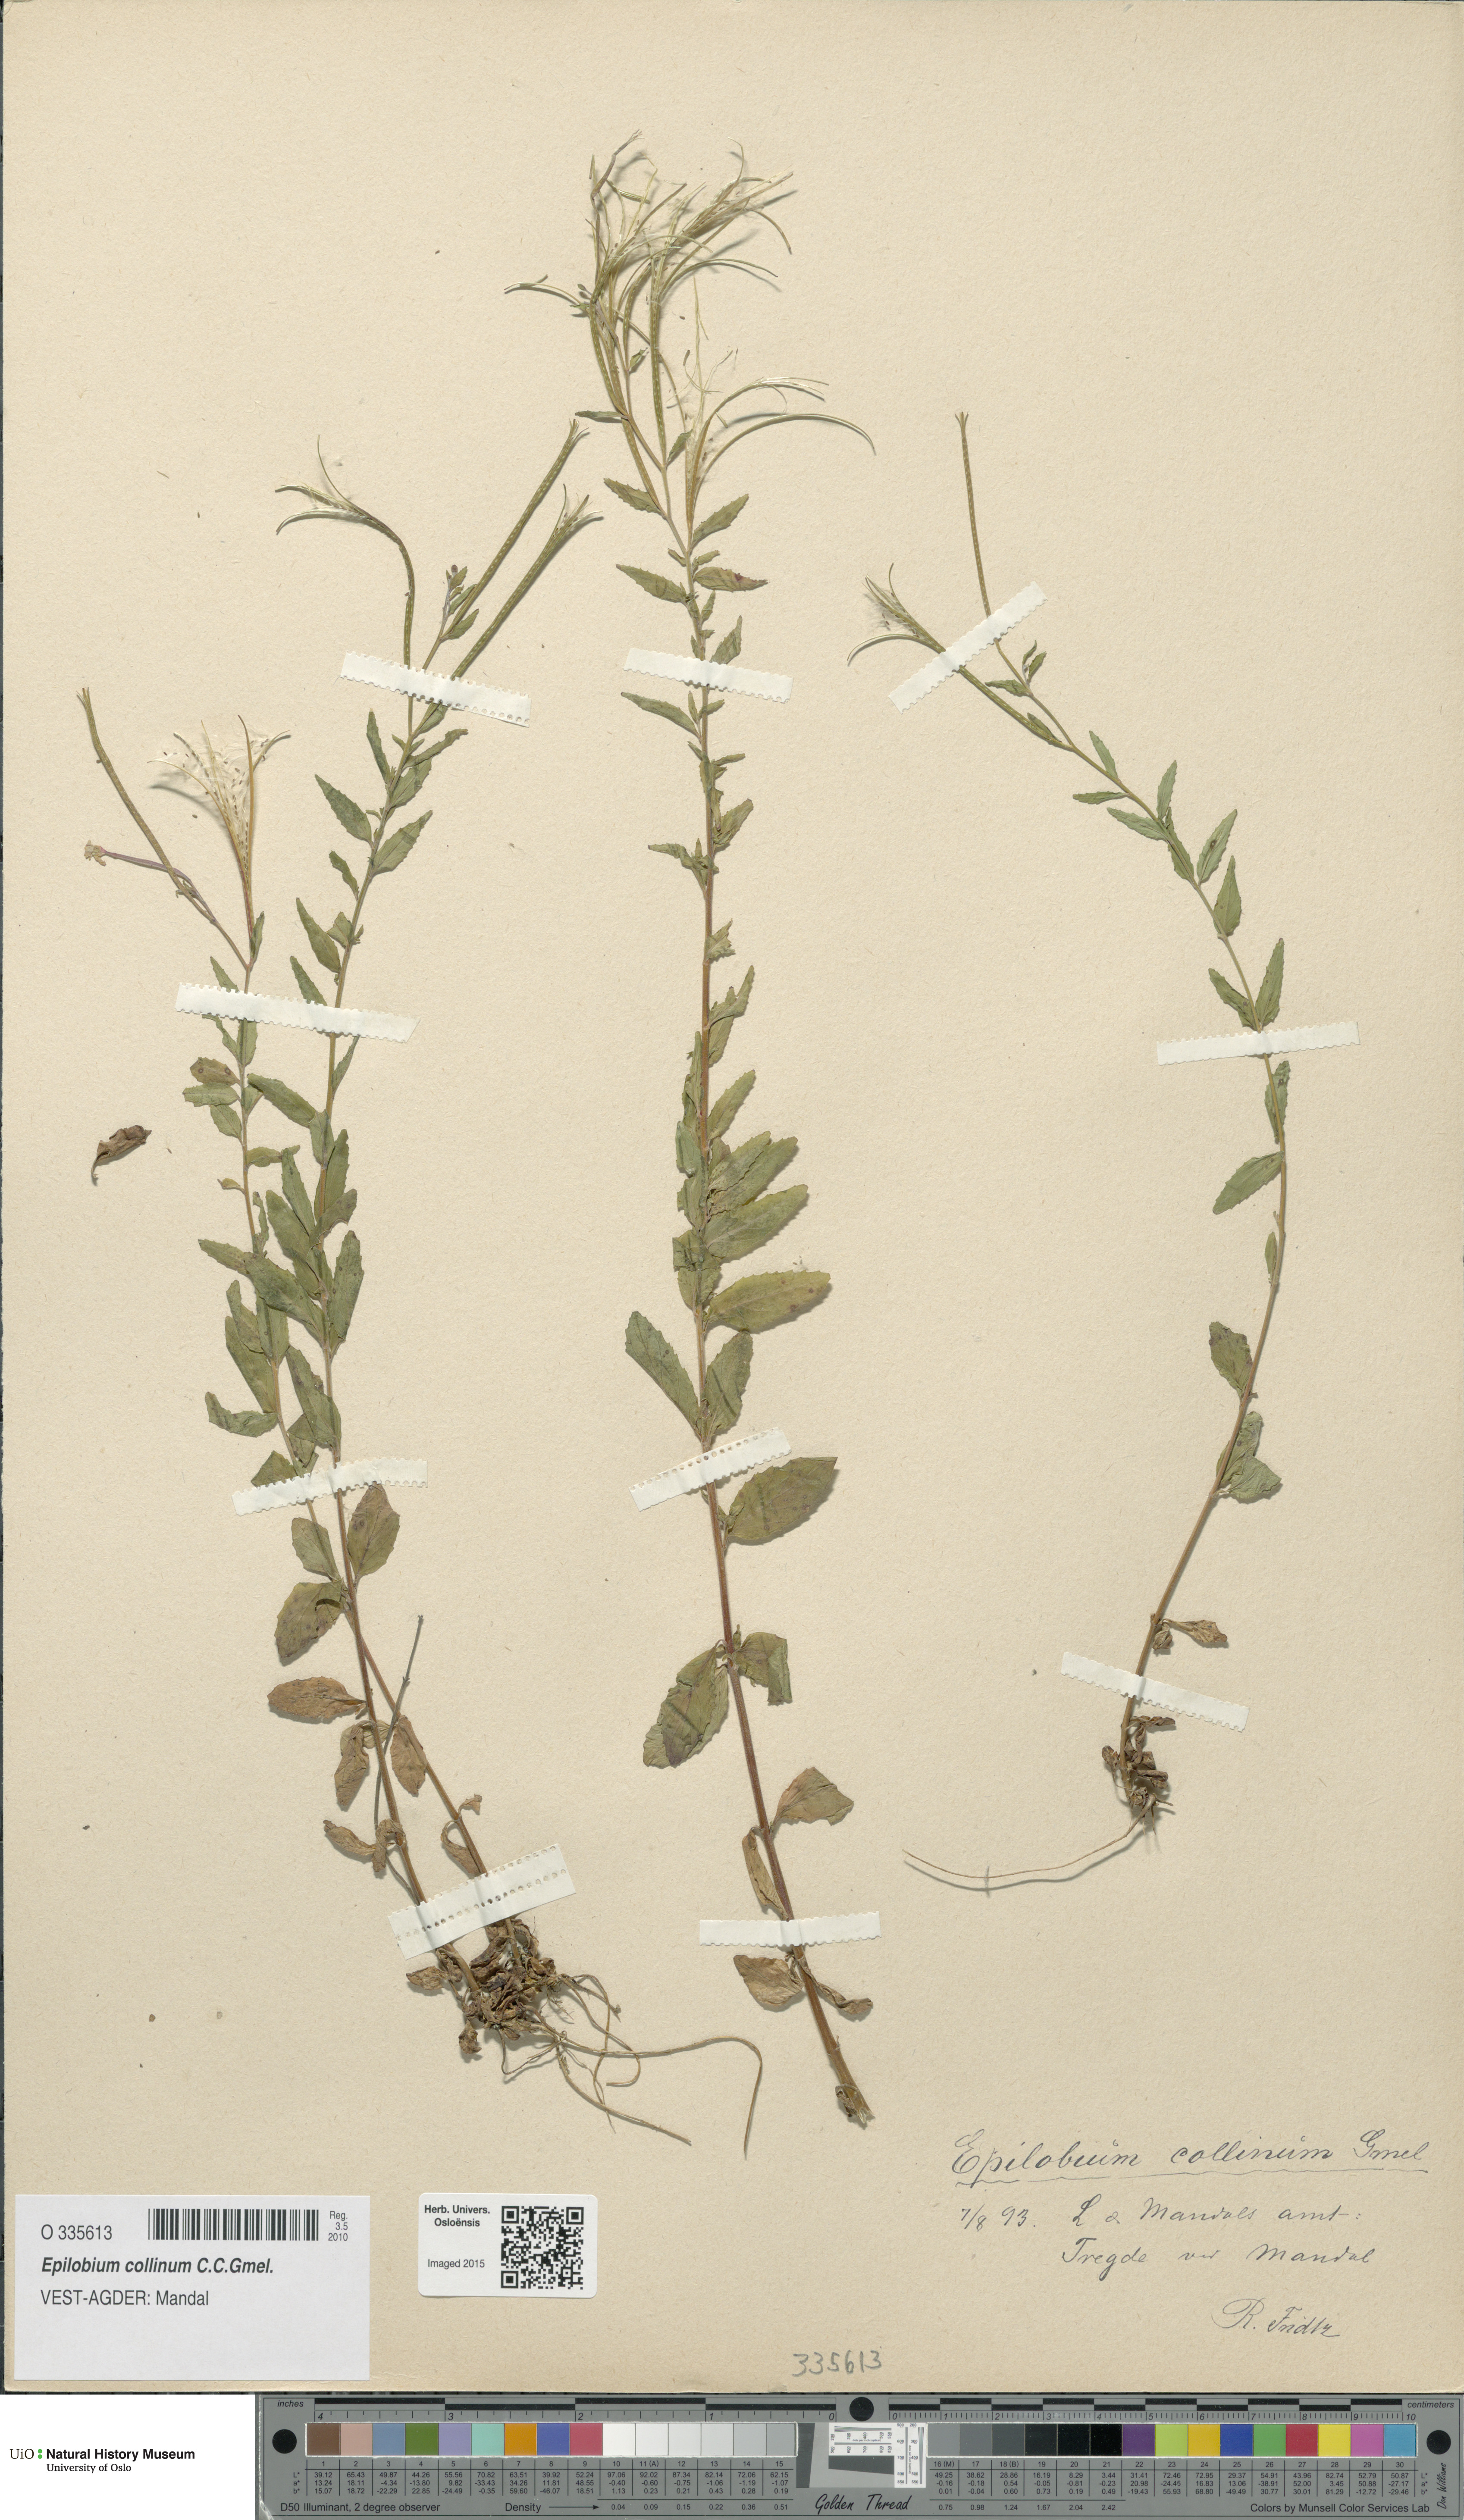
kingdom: Plantae
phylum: Tracheophyta
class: Magnoliopsida
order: Myrtales
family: Onagraceae
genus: Epilobium
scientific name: Epilobium collinum
